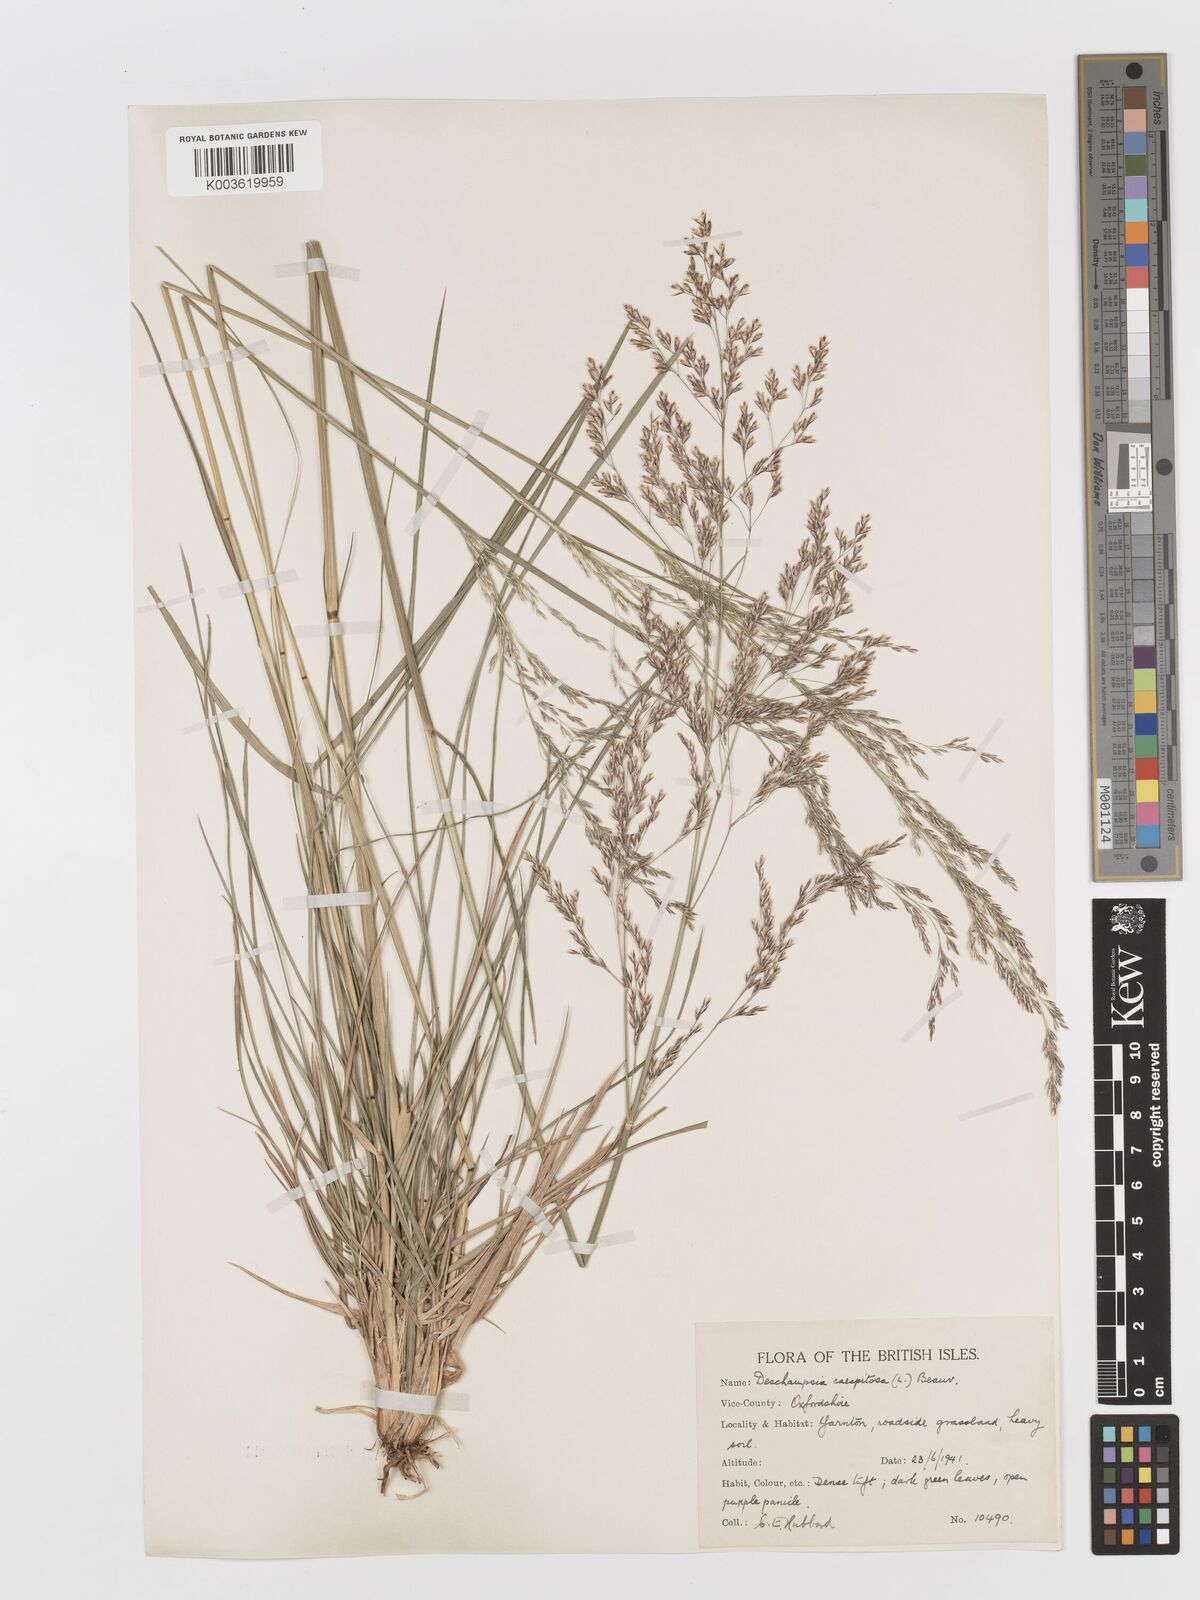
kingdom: Plantae
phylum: Tracheophyta
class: Liliopsida
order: Poales
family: Poaceae
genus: Deschampsia
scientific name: Deschampsia cespitosa
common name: Tufted hair-grass
